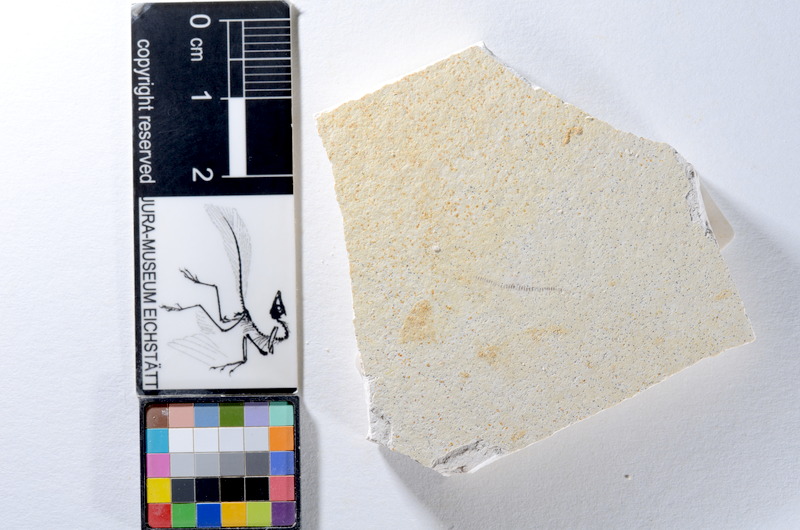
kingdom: Animalia
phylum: Chordata
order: Salmoniformes
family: Orthogonikleithridae
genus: Orthogonikleithrus
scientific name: Orthogonikleithrus hoelli
